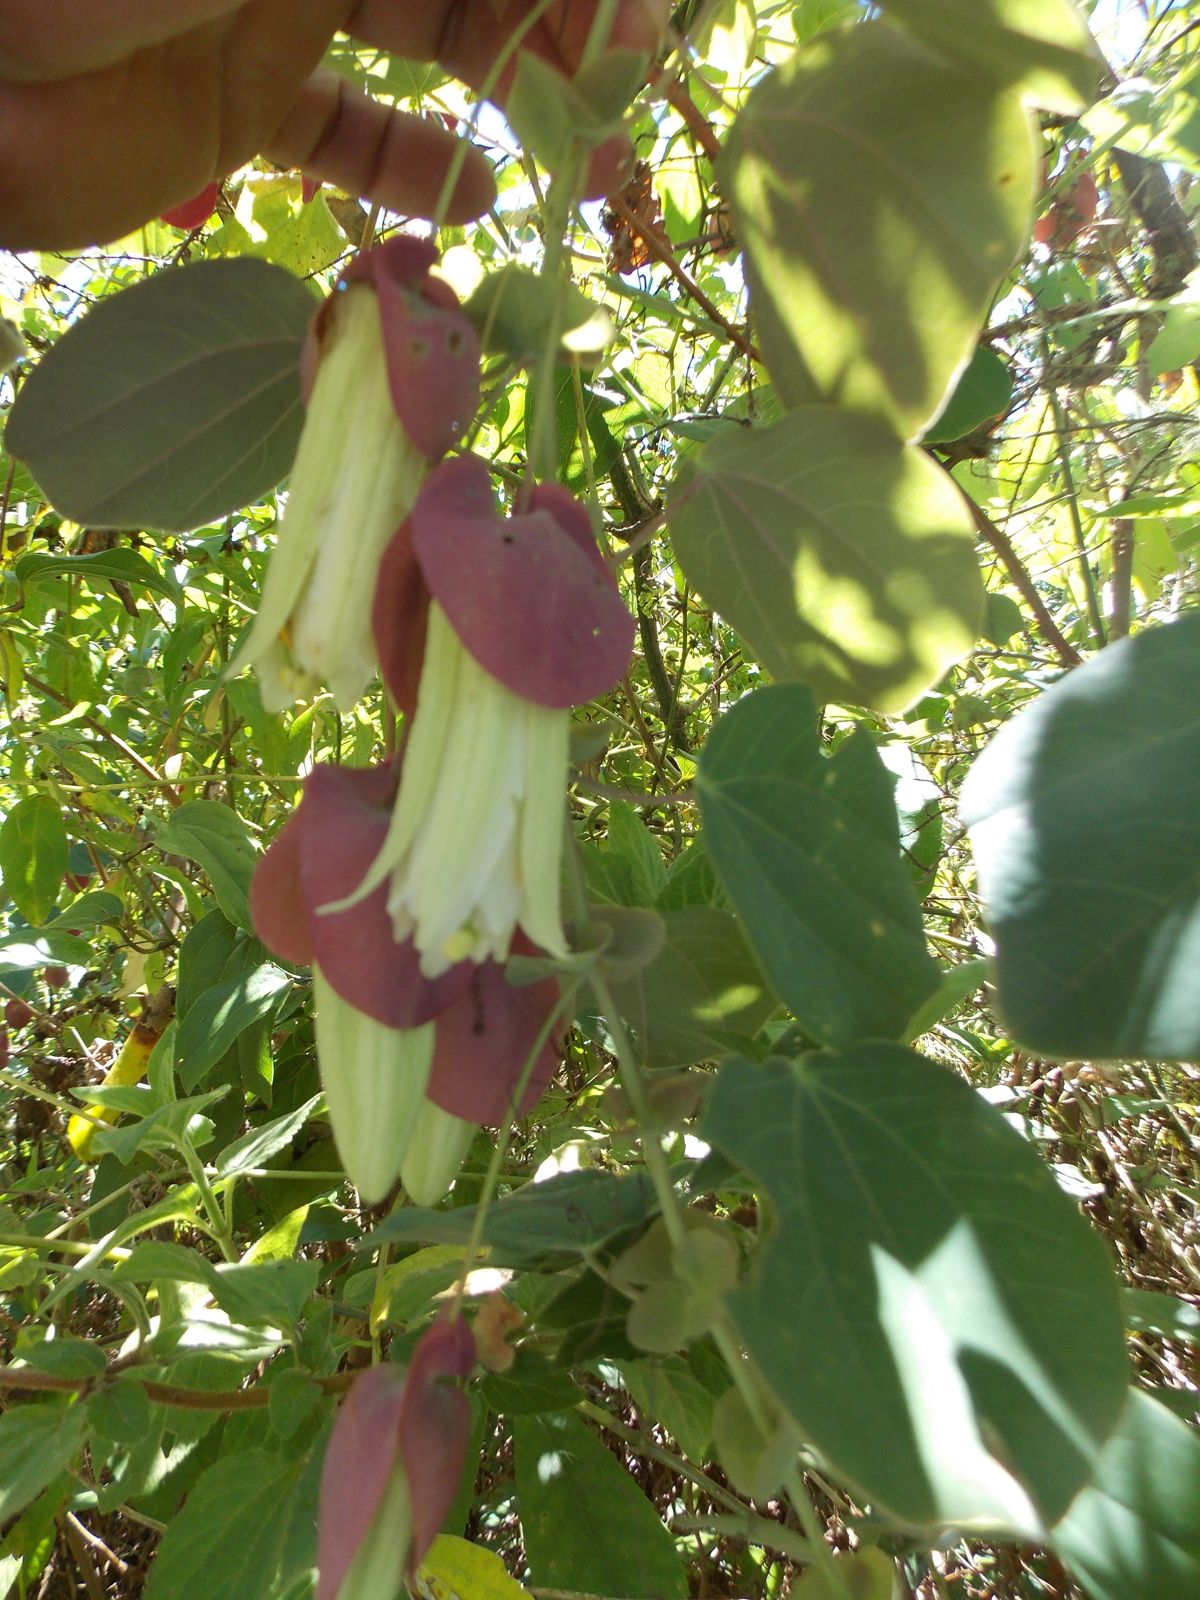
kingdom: Plantae
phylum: Tracheophyta
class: Magnoliopsida
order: Malpighiales
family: Passifloraceae
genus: Passiflora
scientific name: Passiflora membranacea
